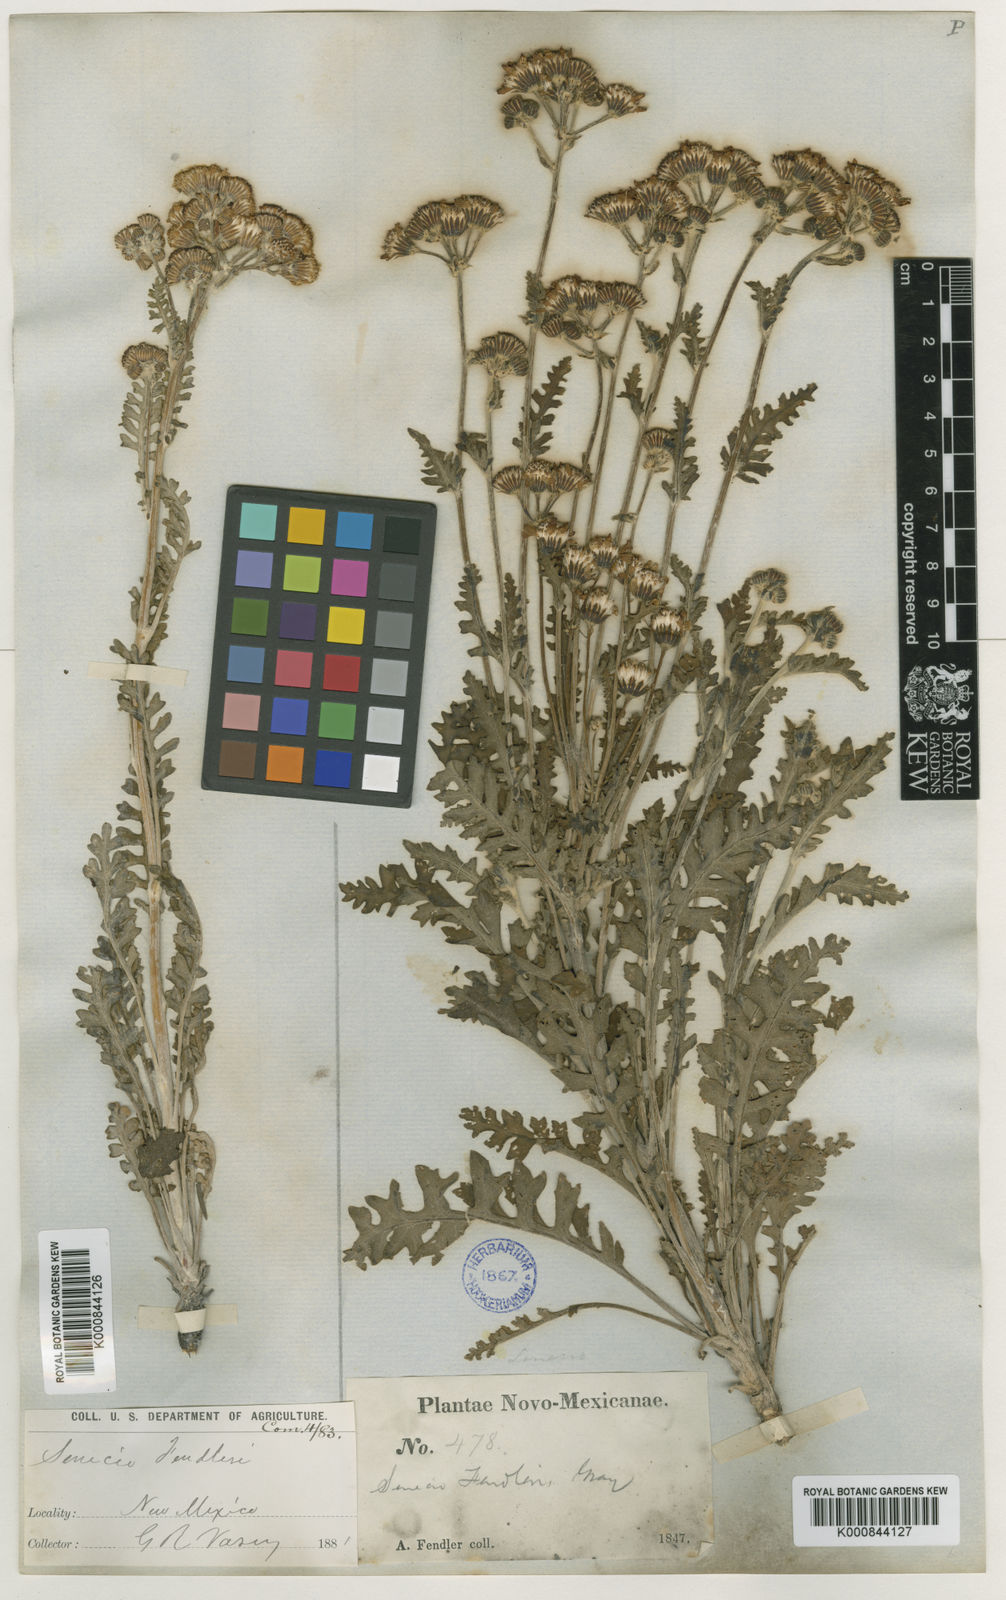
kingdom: Plantae
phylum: Tracheophyta
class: Magnoliopsida
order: Asterales
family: Asteraceae
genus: Packera
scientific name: Packera
